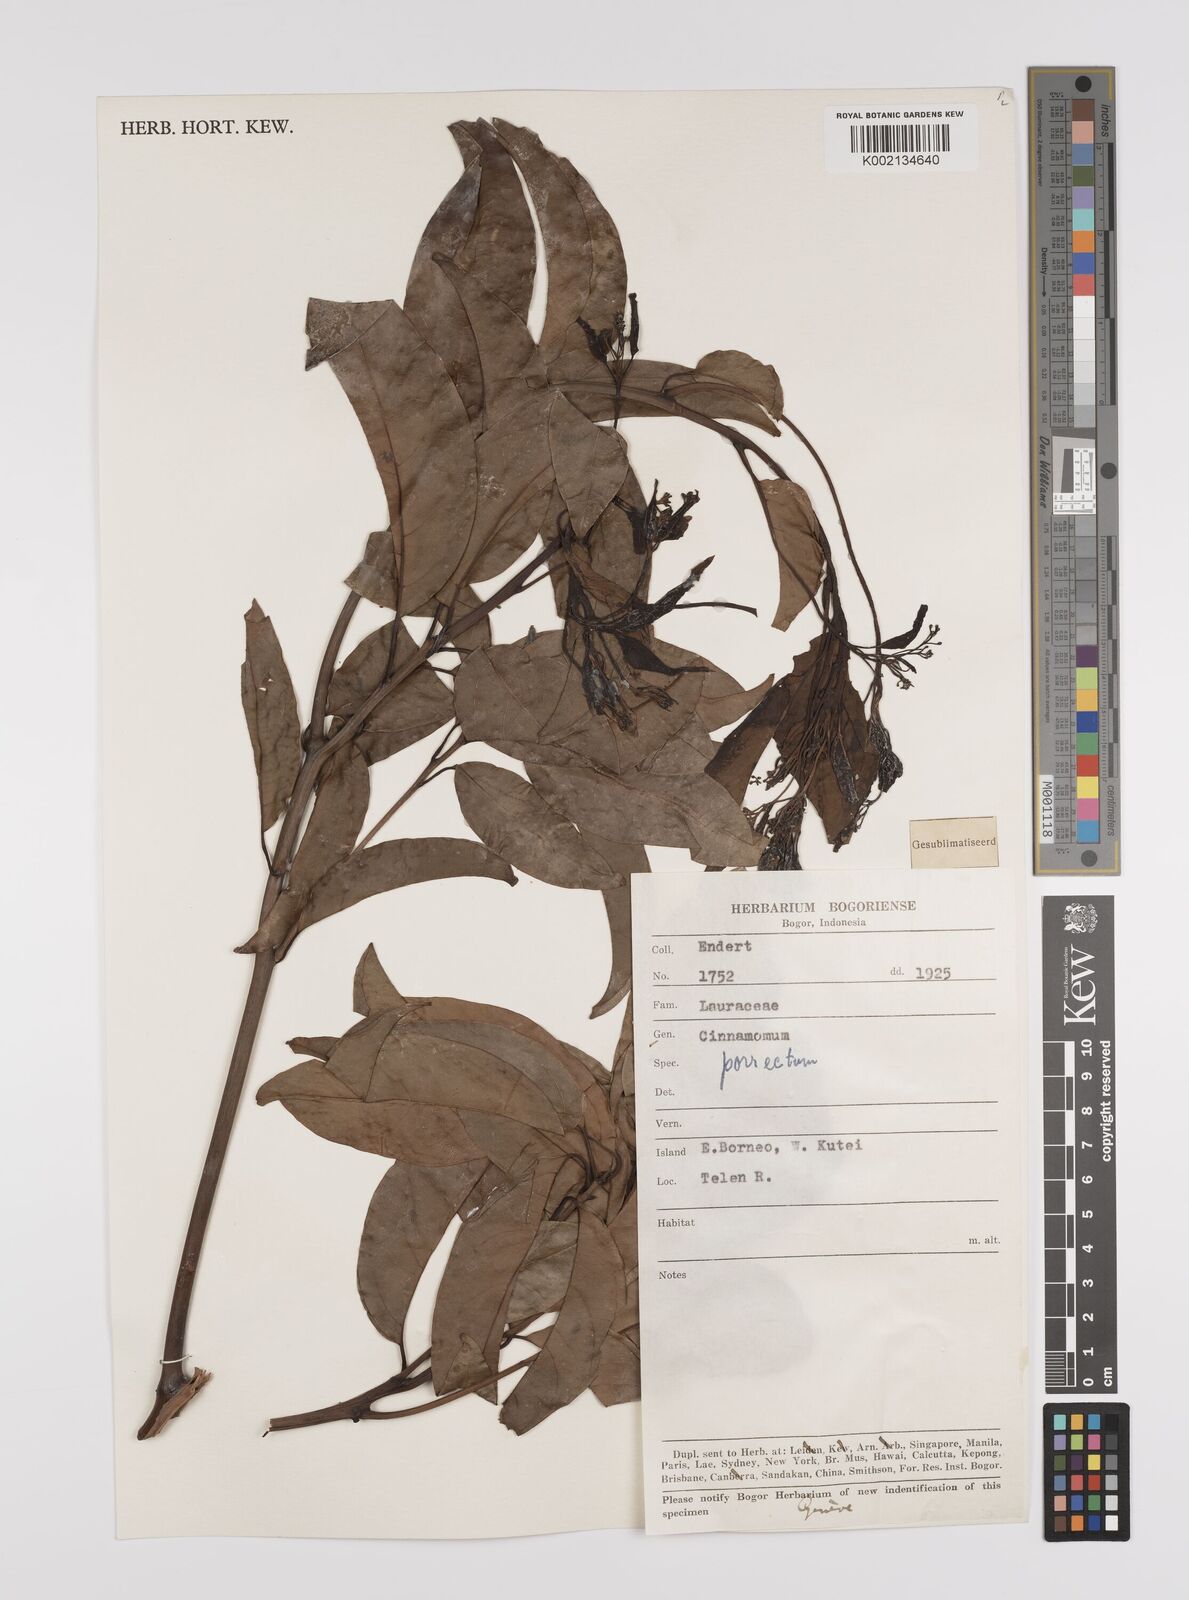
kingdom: Plantae
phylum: Tracheophyta
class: Magnoliopsida
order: Laurales
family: Lauraceae
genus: Cinnamomum
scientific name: Cinnamomum parthenoxylon
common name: Martaban camphor wood
